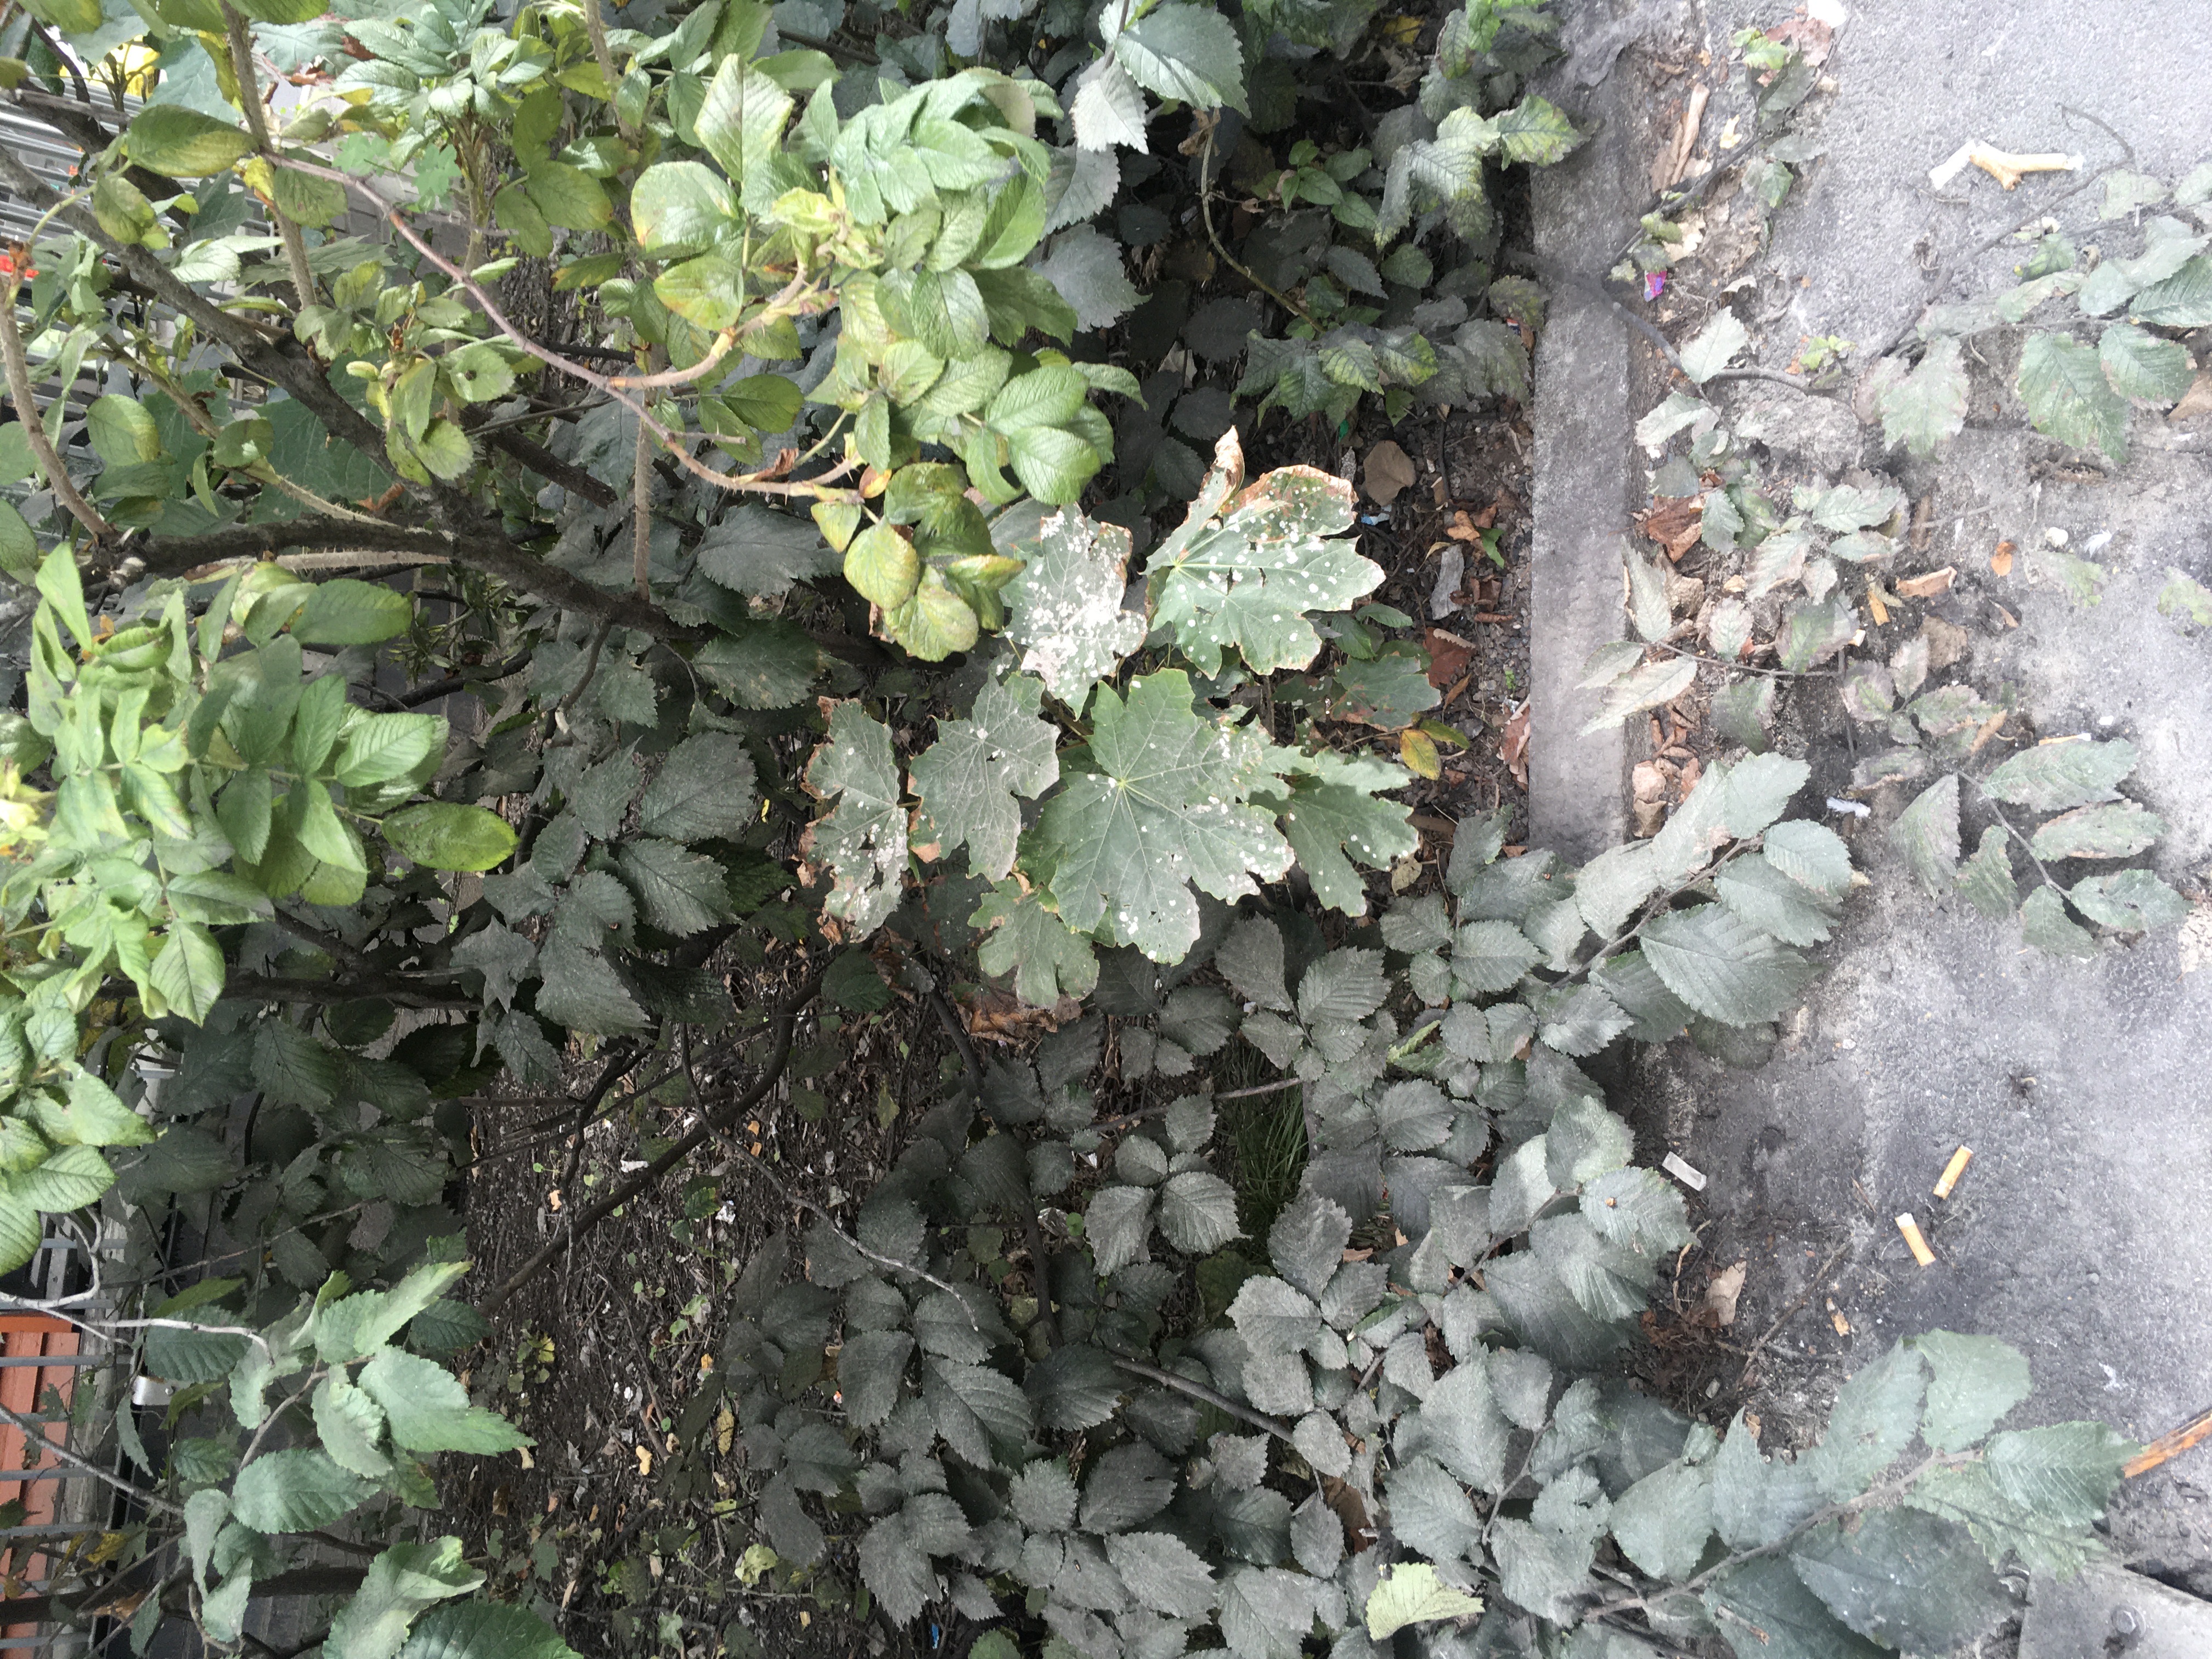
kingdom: Plantae
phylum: Tracheophyta
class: Magnoliopsida
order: Sapindales
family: Sapindaceae
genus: Acer
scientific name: Acer pseudoplatanus
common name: platanlønn
